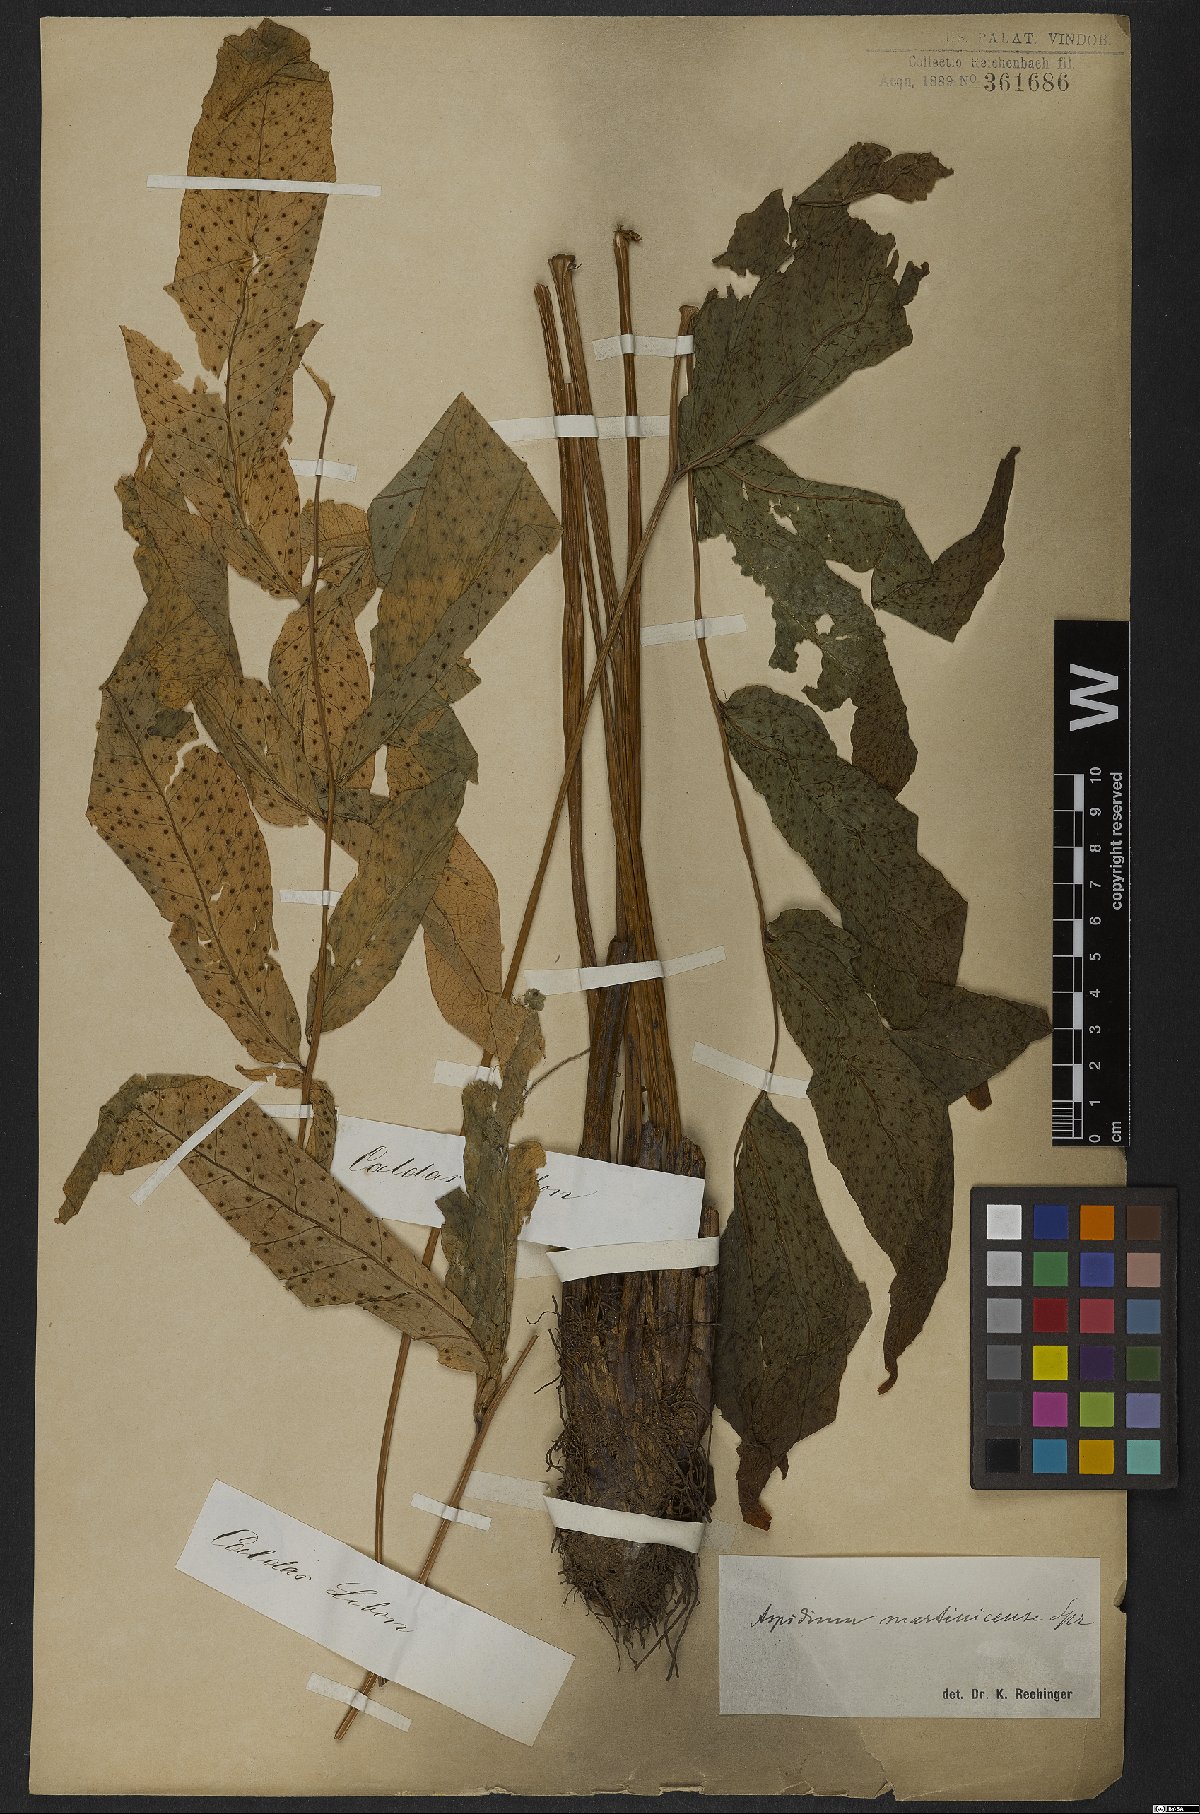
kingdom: Plantae
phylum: Tracheophyta
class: Polypodiopsida
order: Polypodiales
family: Tectariaceae
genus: Tectaria
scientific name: Tectaria incisa
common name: Incised halberd fern
